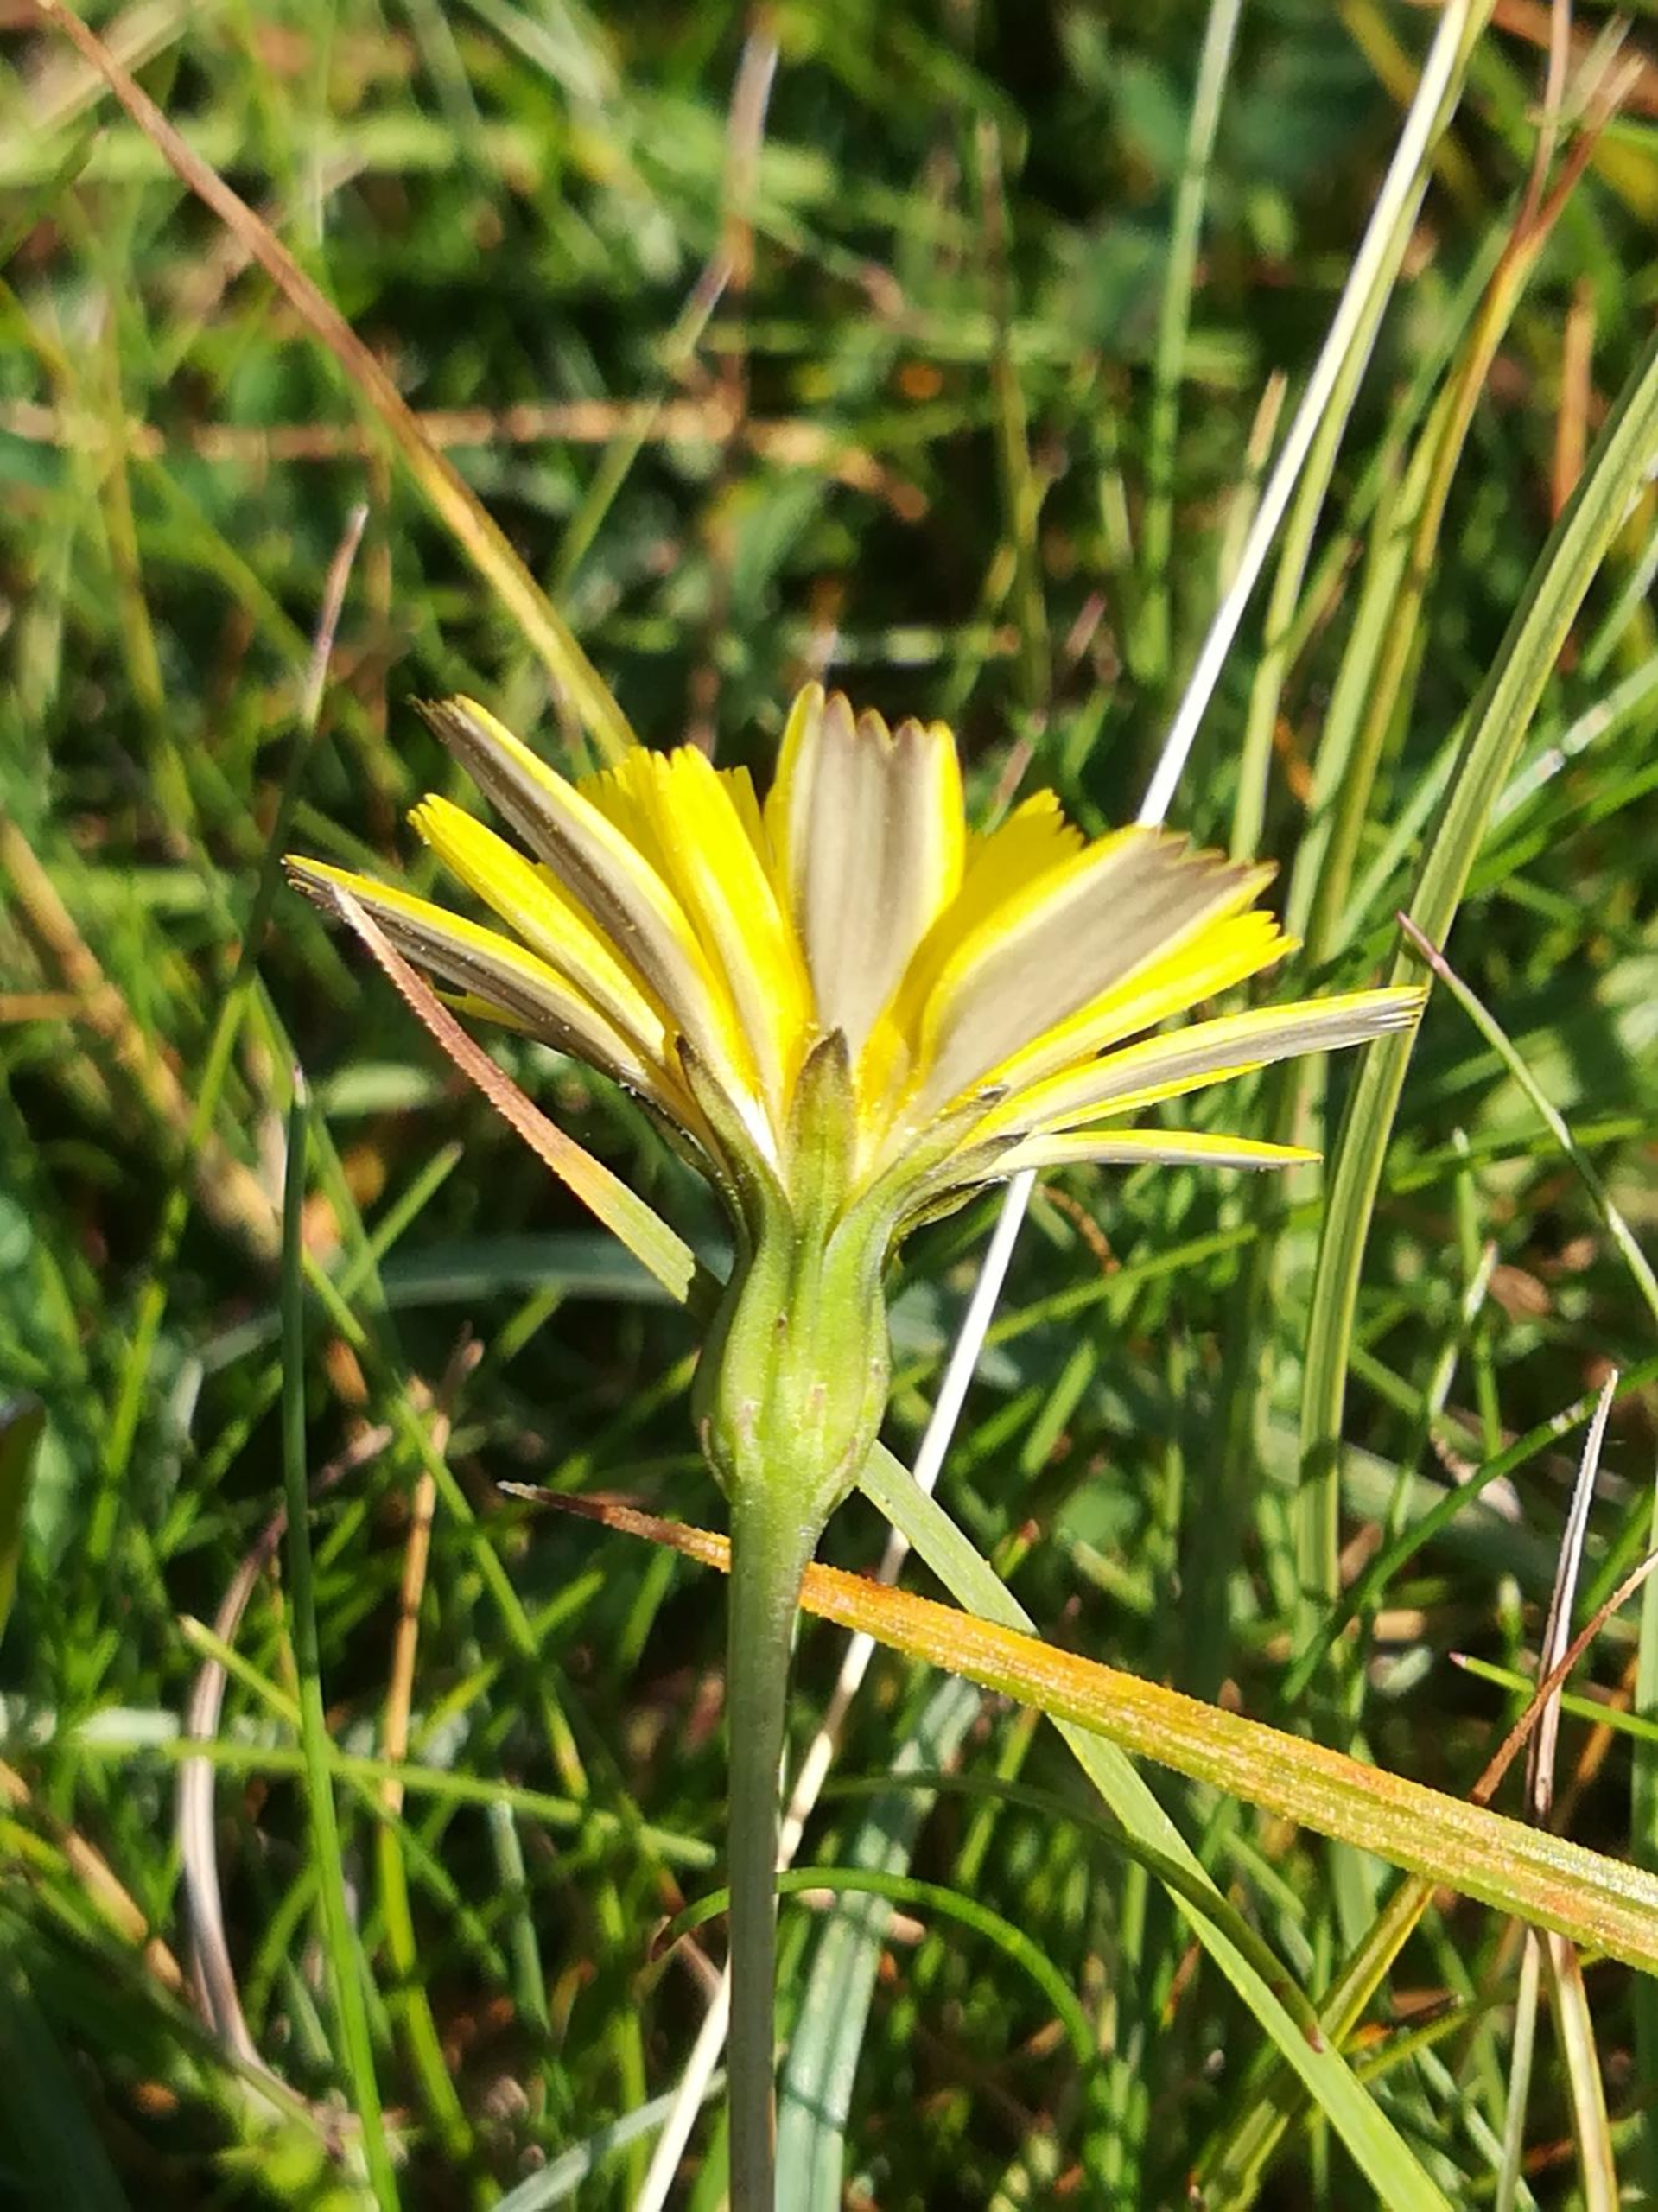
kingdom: Plantae
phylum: Tracheophyta
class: Magnoliopsida
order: Asterales
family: Asteraceae
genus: Thrincia
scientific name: Thrincia saxatilis
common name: Hundesalat
